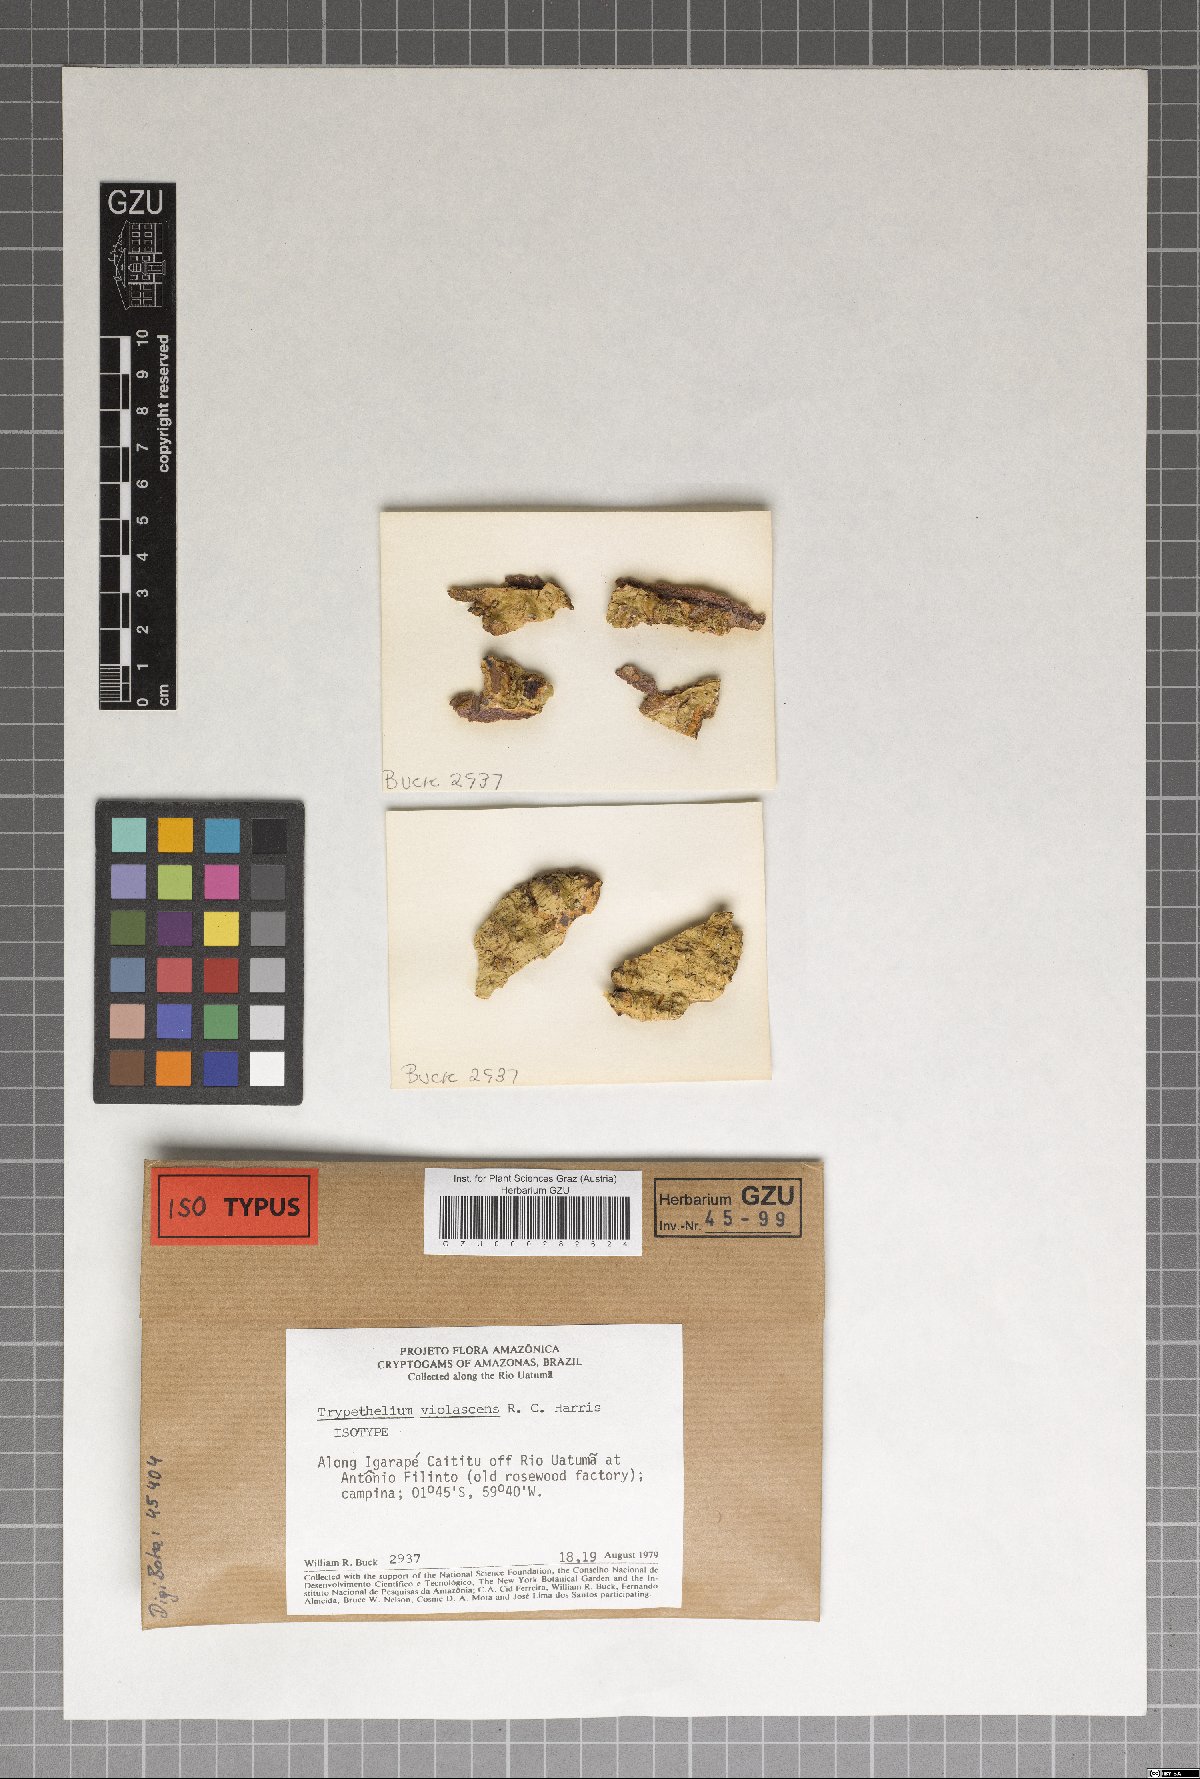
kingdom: Fungi
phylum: Ascomycota
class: Dothideomycetes
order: Trypetheliales
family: Trypetheliaceae
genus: Trypethelium
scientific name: Trypethelium violascens
